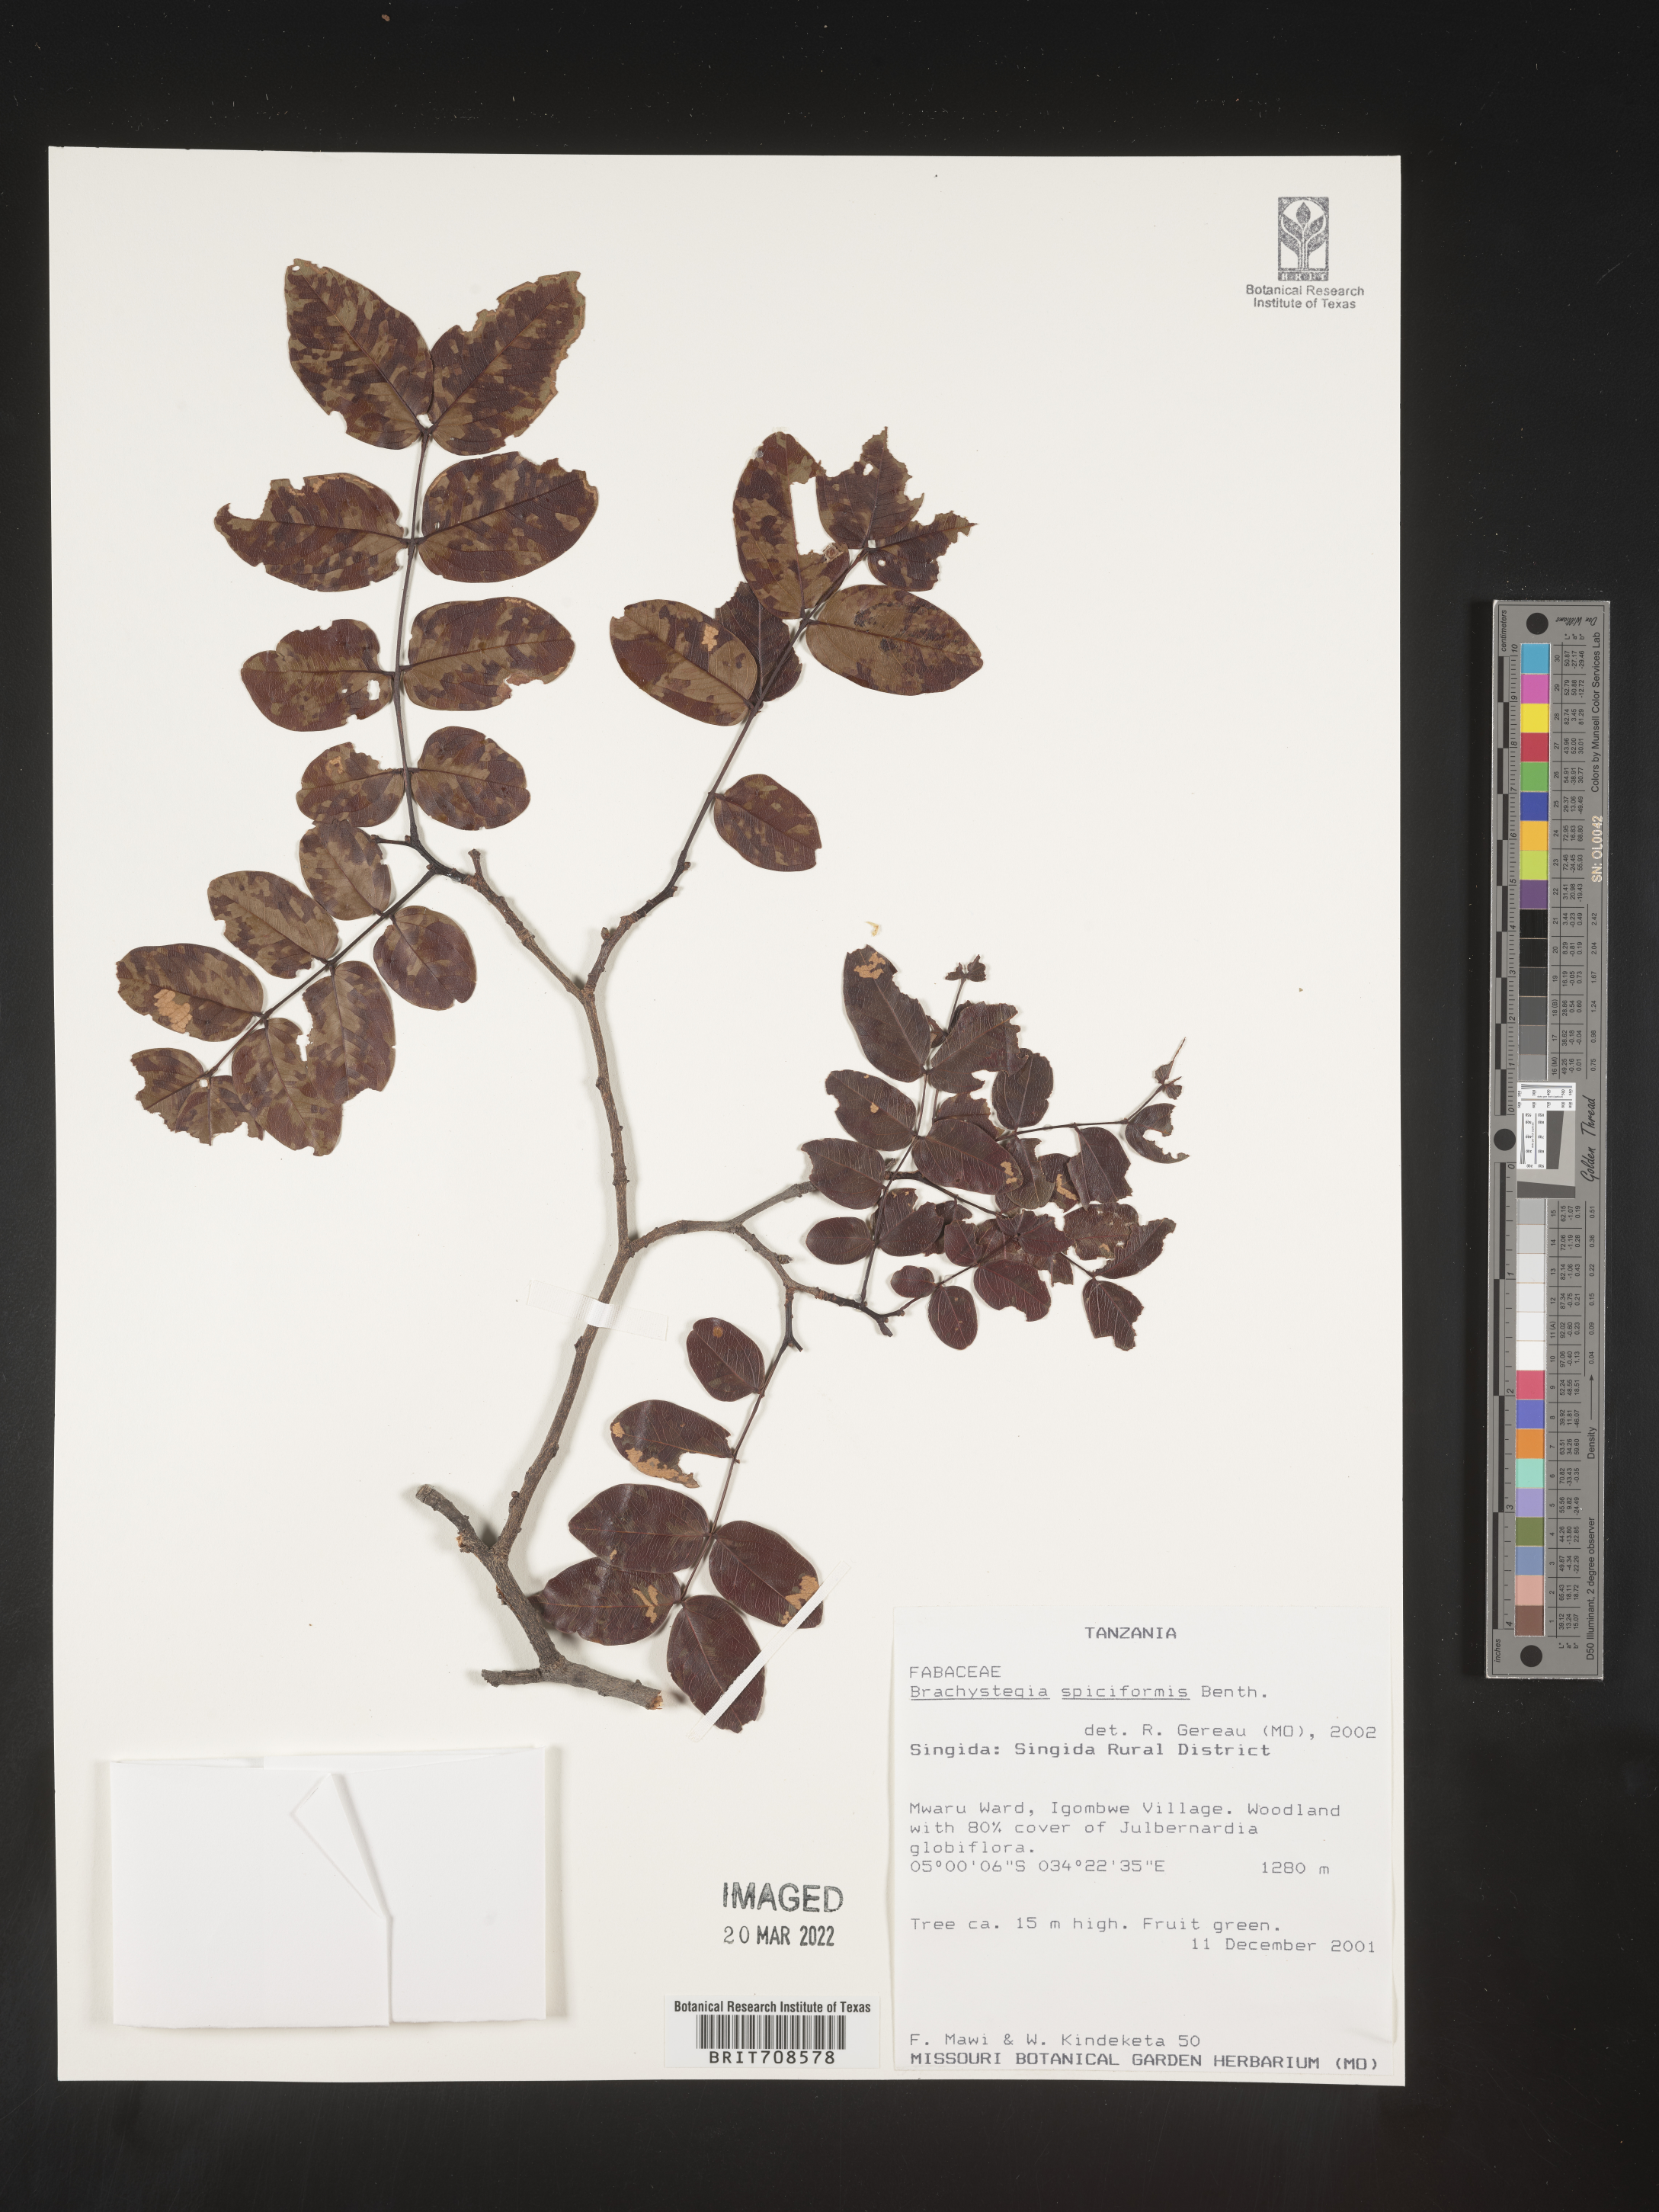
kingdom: Plantae
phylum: Tracheophyta
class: Magnoliopsida
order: Fabales
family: Fabaceae
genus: Brachystegia
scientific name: Brachystegia
